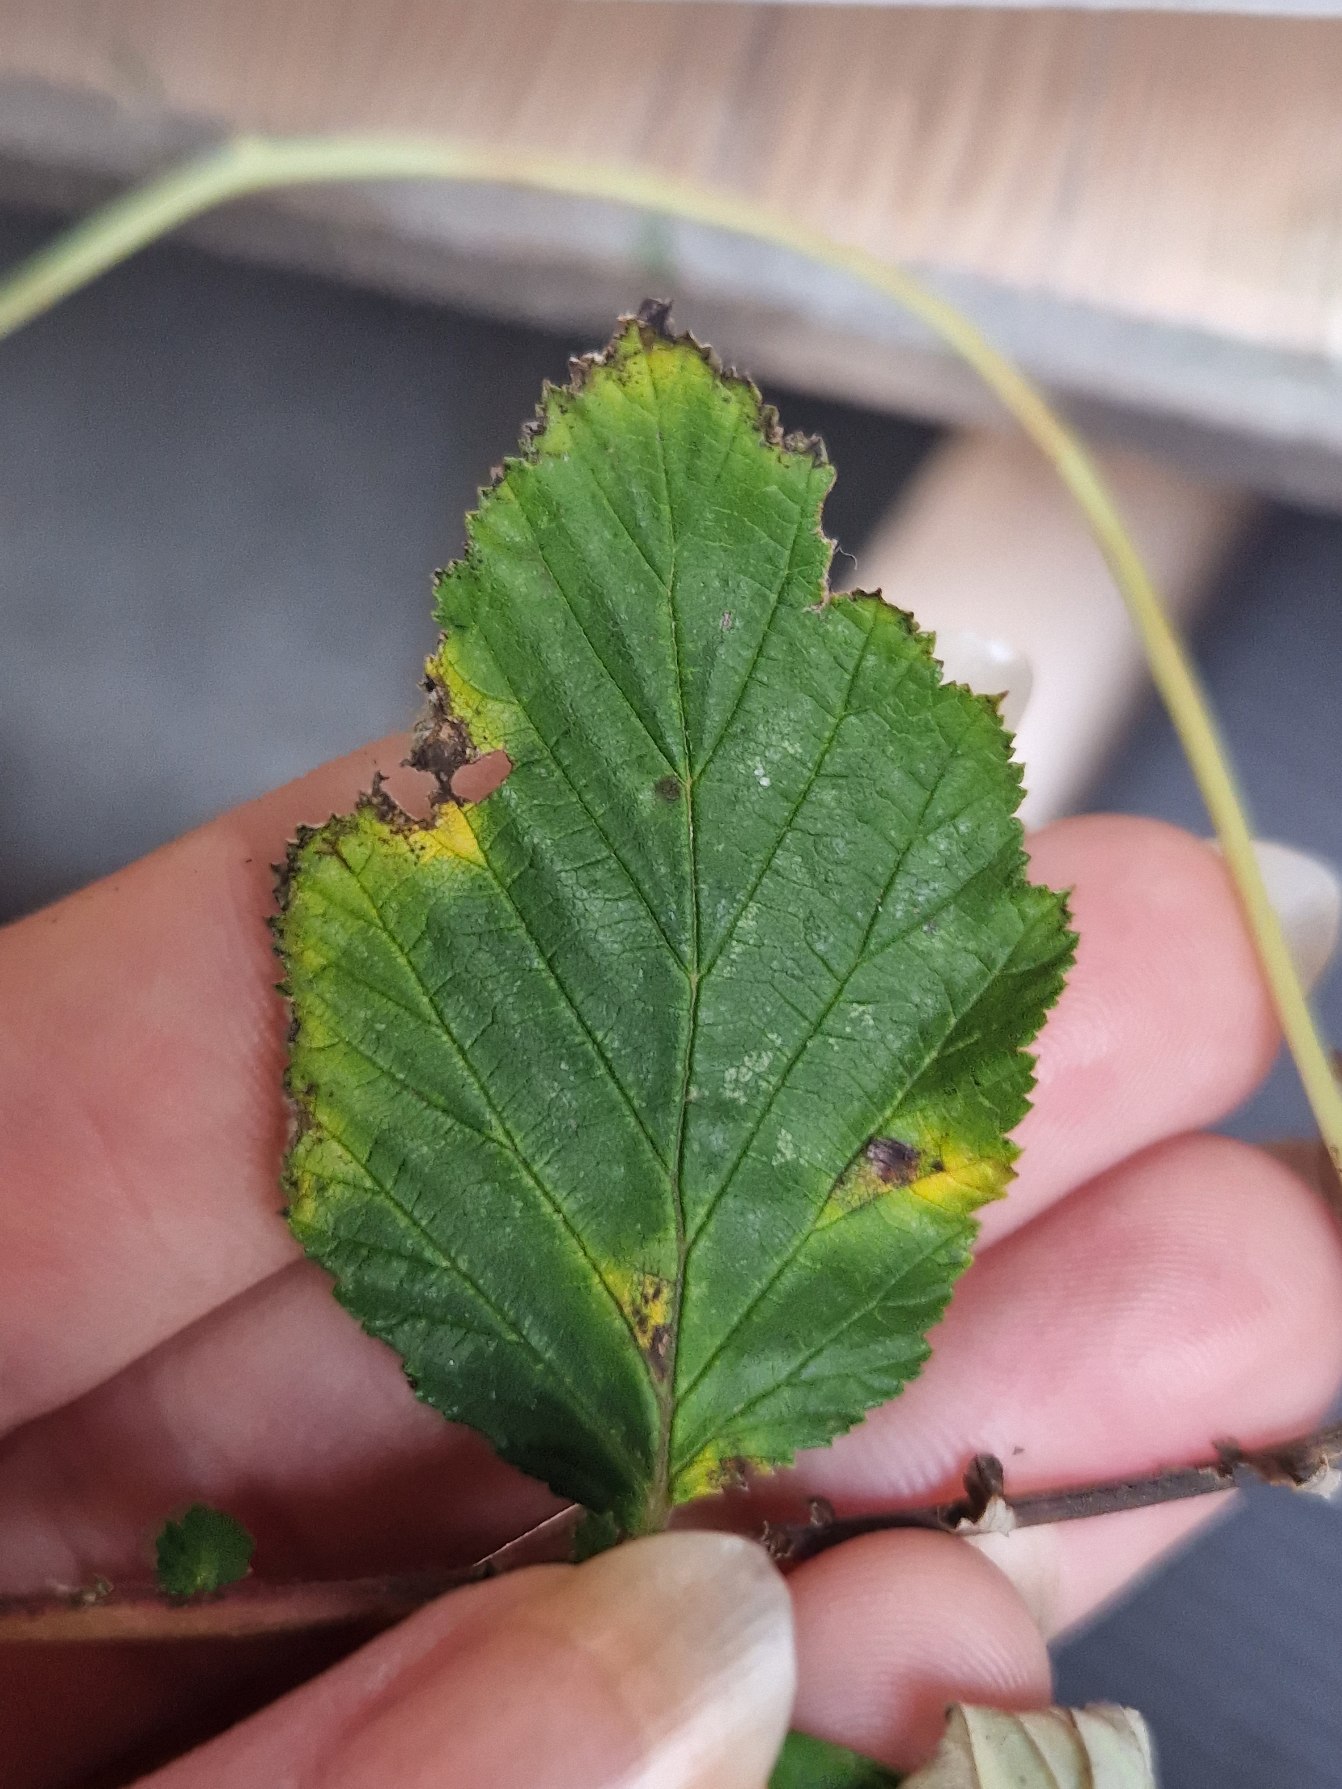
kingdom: Plantae
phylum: Tracheophyta
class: Magnoliopsida
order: Rosales
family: Rosaceae
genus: Filipendula
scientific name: Filipendula ulmaria
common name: Almindelig mjødurt
